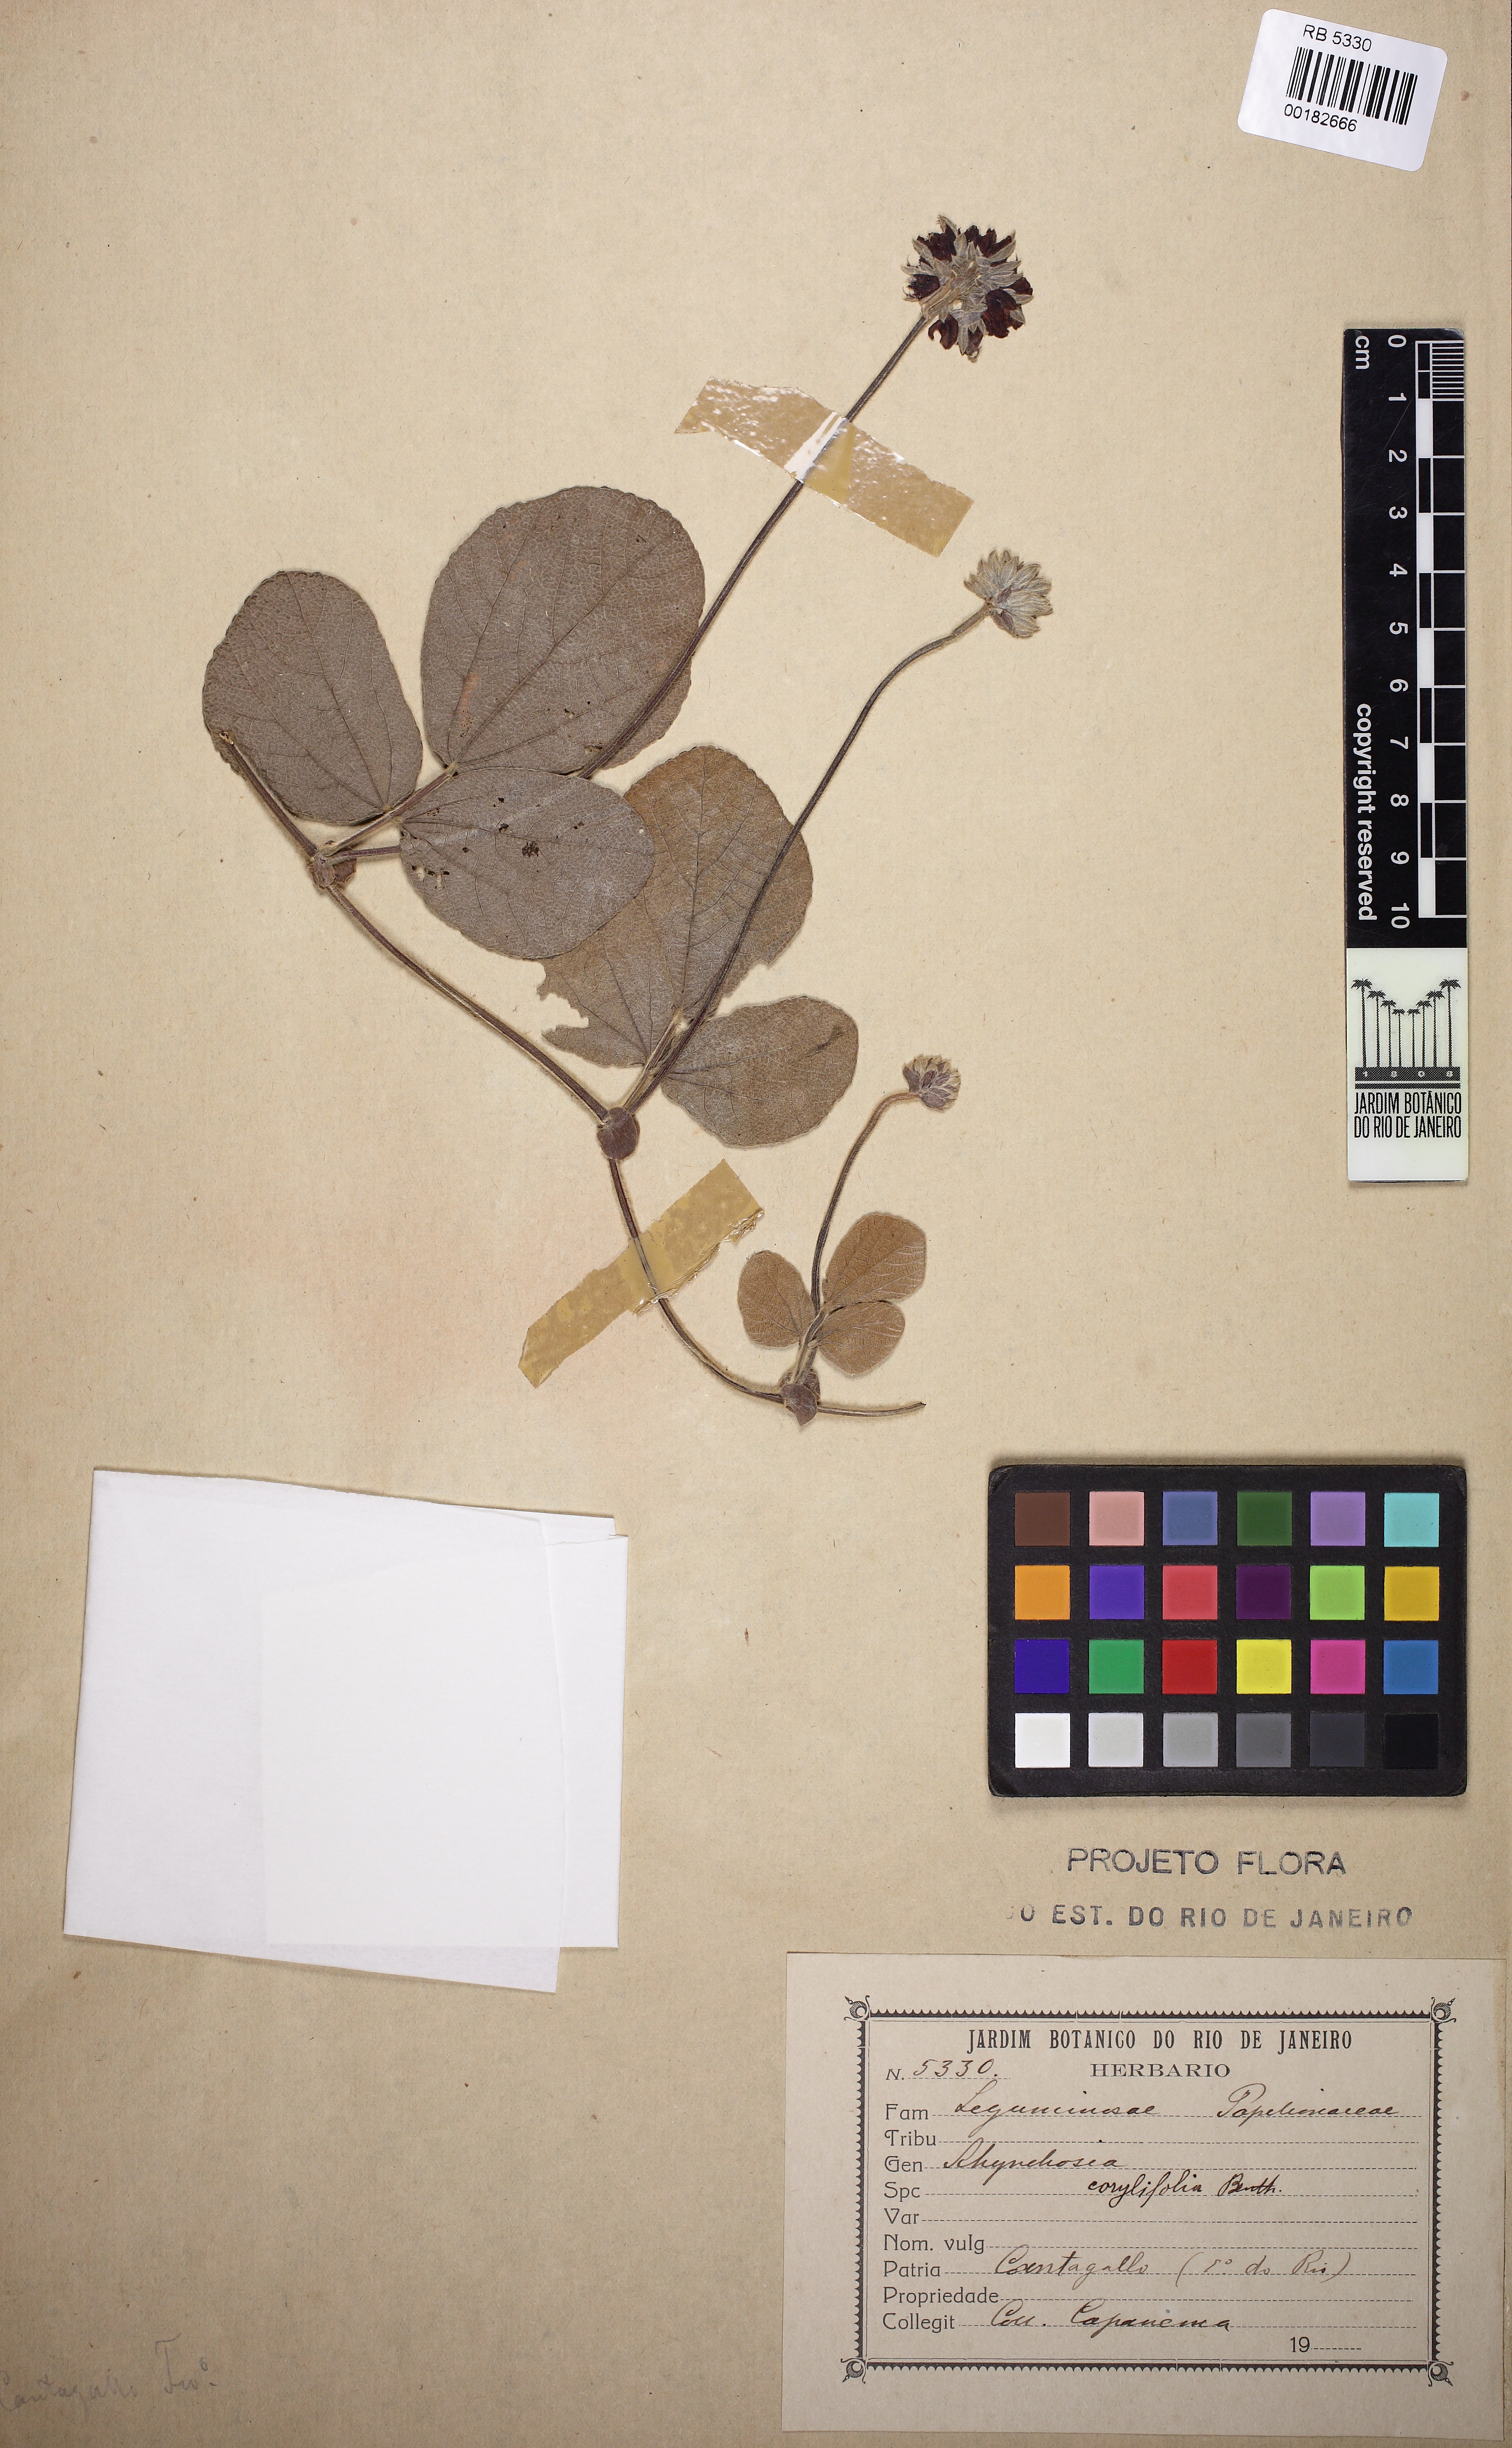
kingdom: Plantae
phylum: Tracheophyta
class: Magnoliopsida
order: Fabales
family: Fabaceae
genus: Rhynchosia
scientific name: Rhynchosia corylifolia
